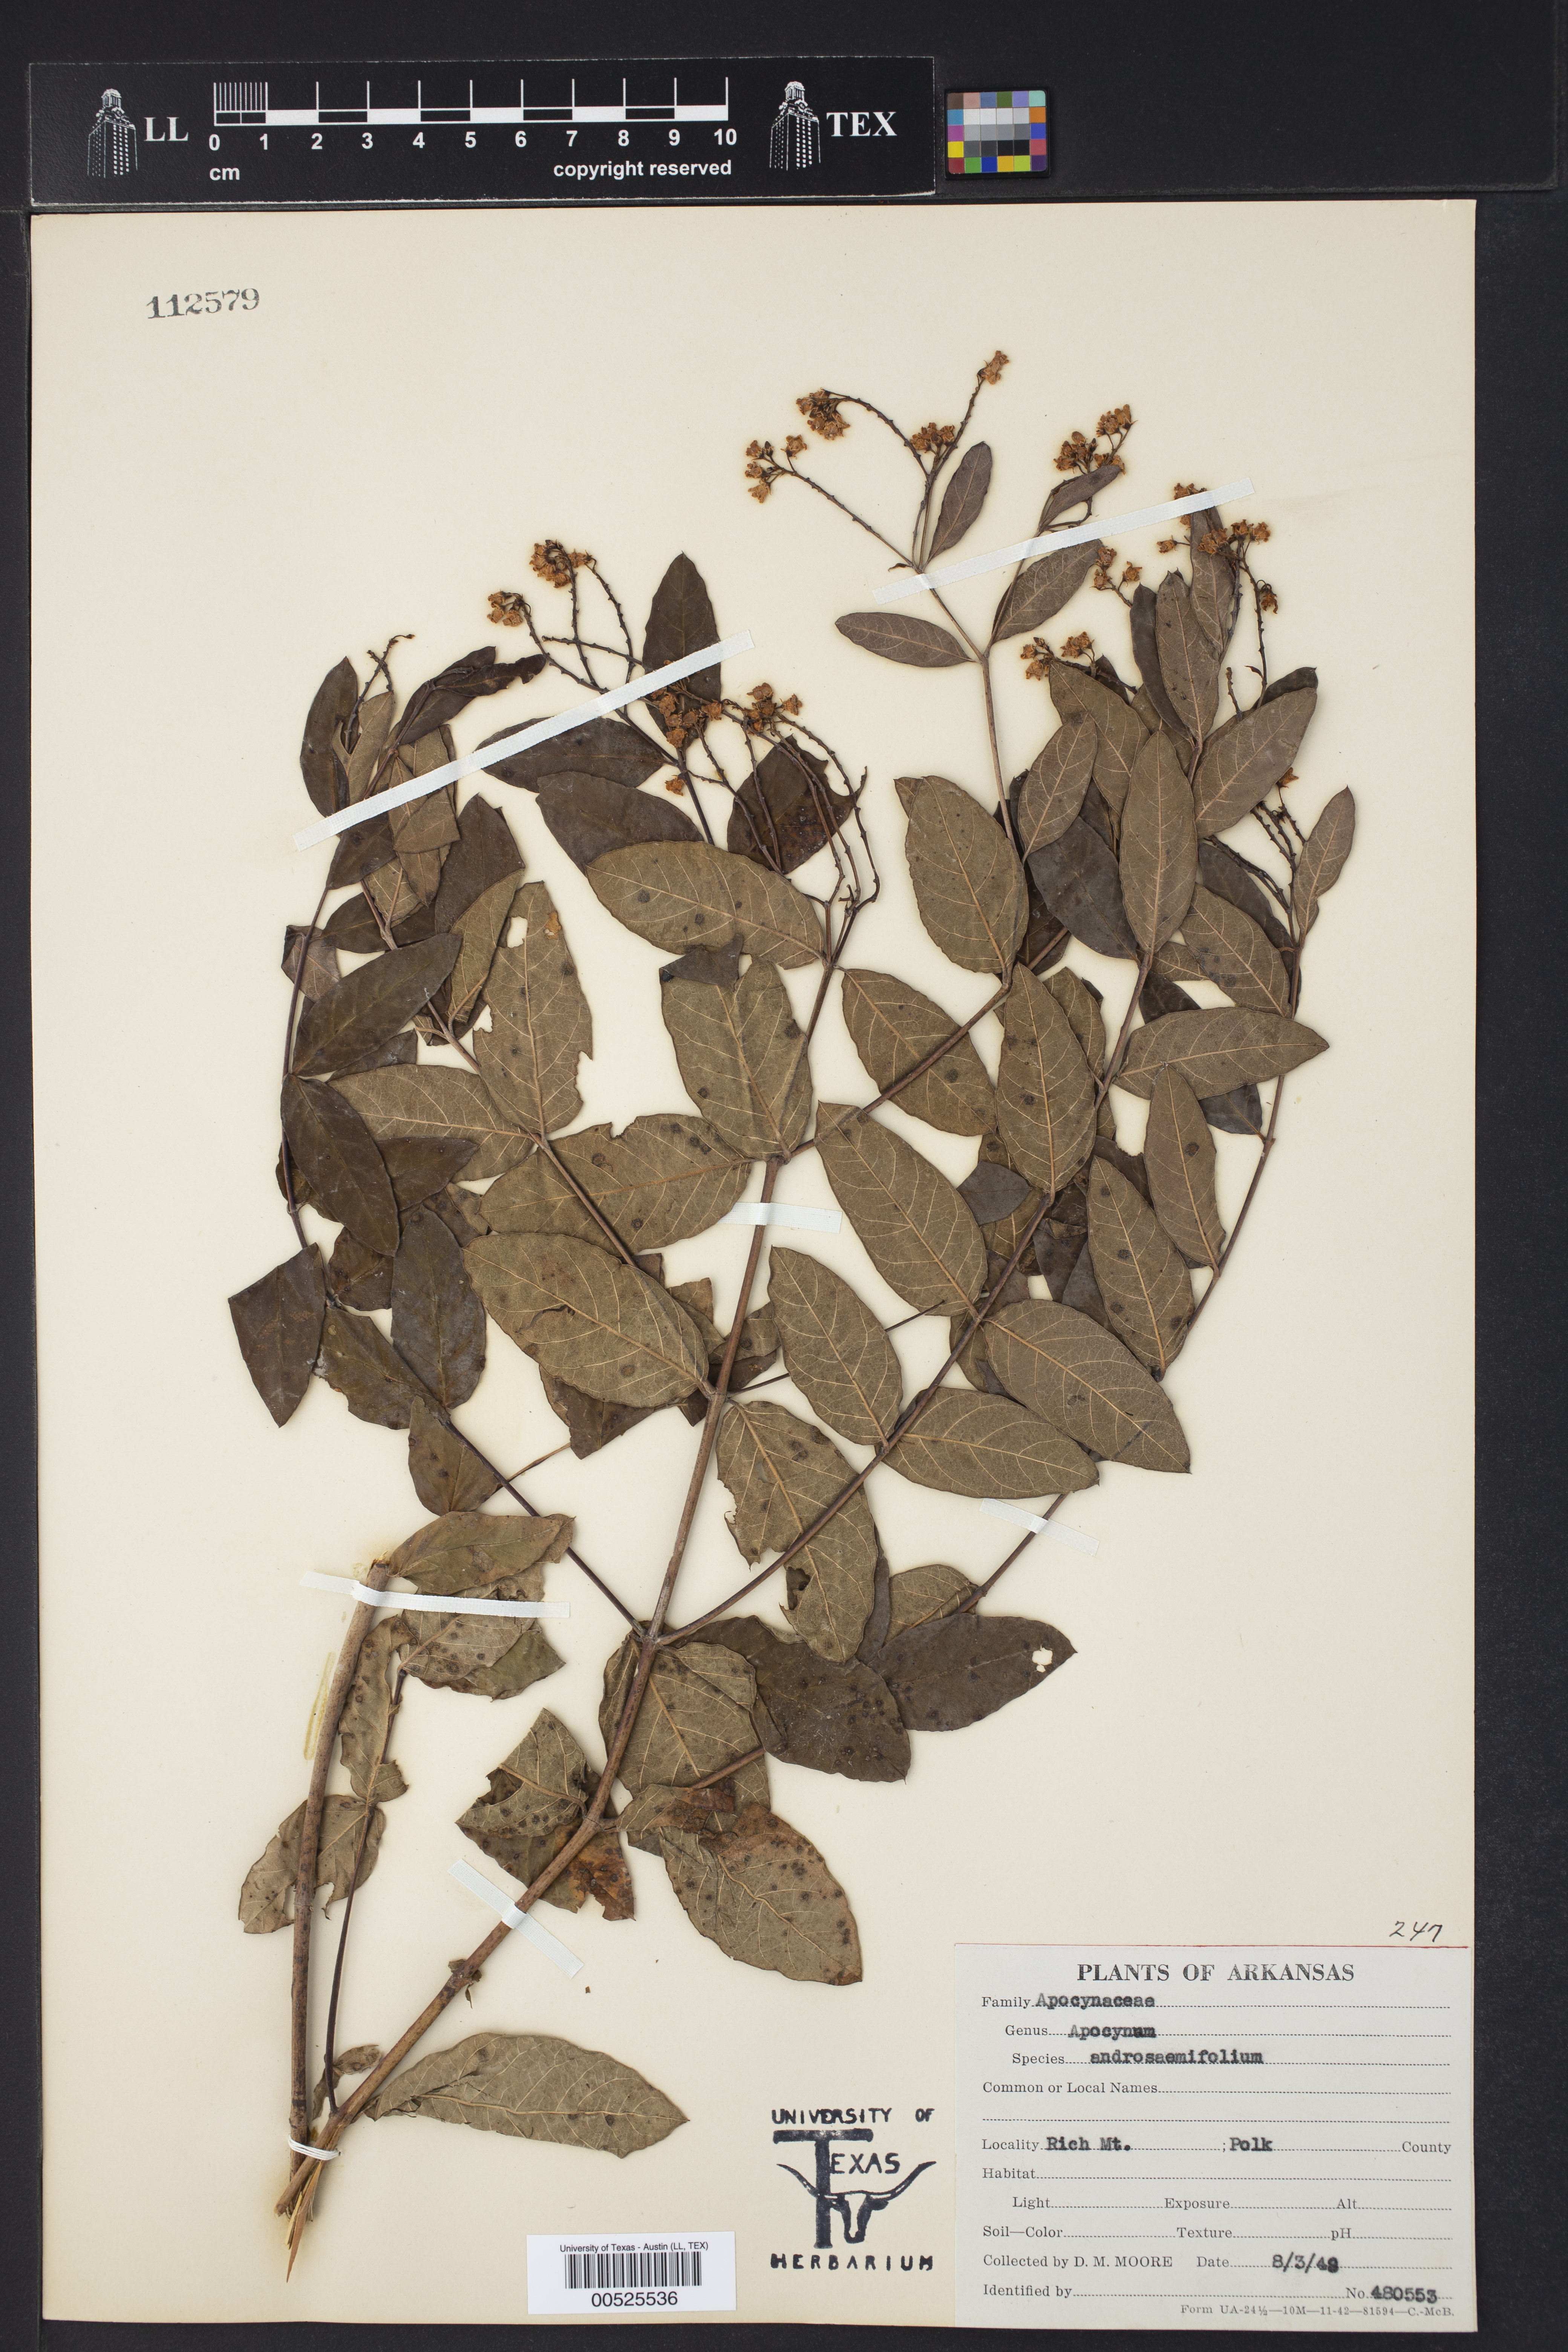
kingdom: Plantae
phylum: Tracheophyta
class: Magnoliopsida
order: Gentianales
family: Apocynaceae
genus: Apocynum
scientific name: Apocynum cannabinum
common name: Hemp dogbane
